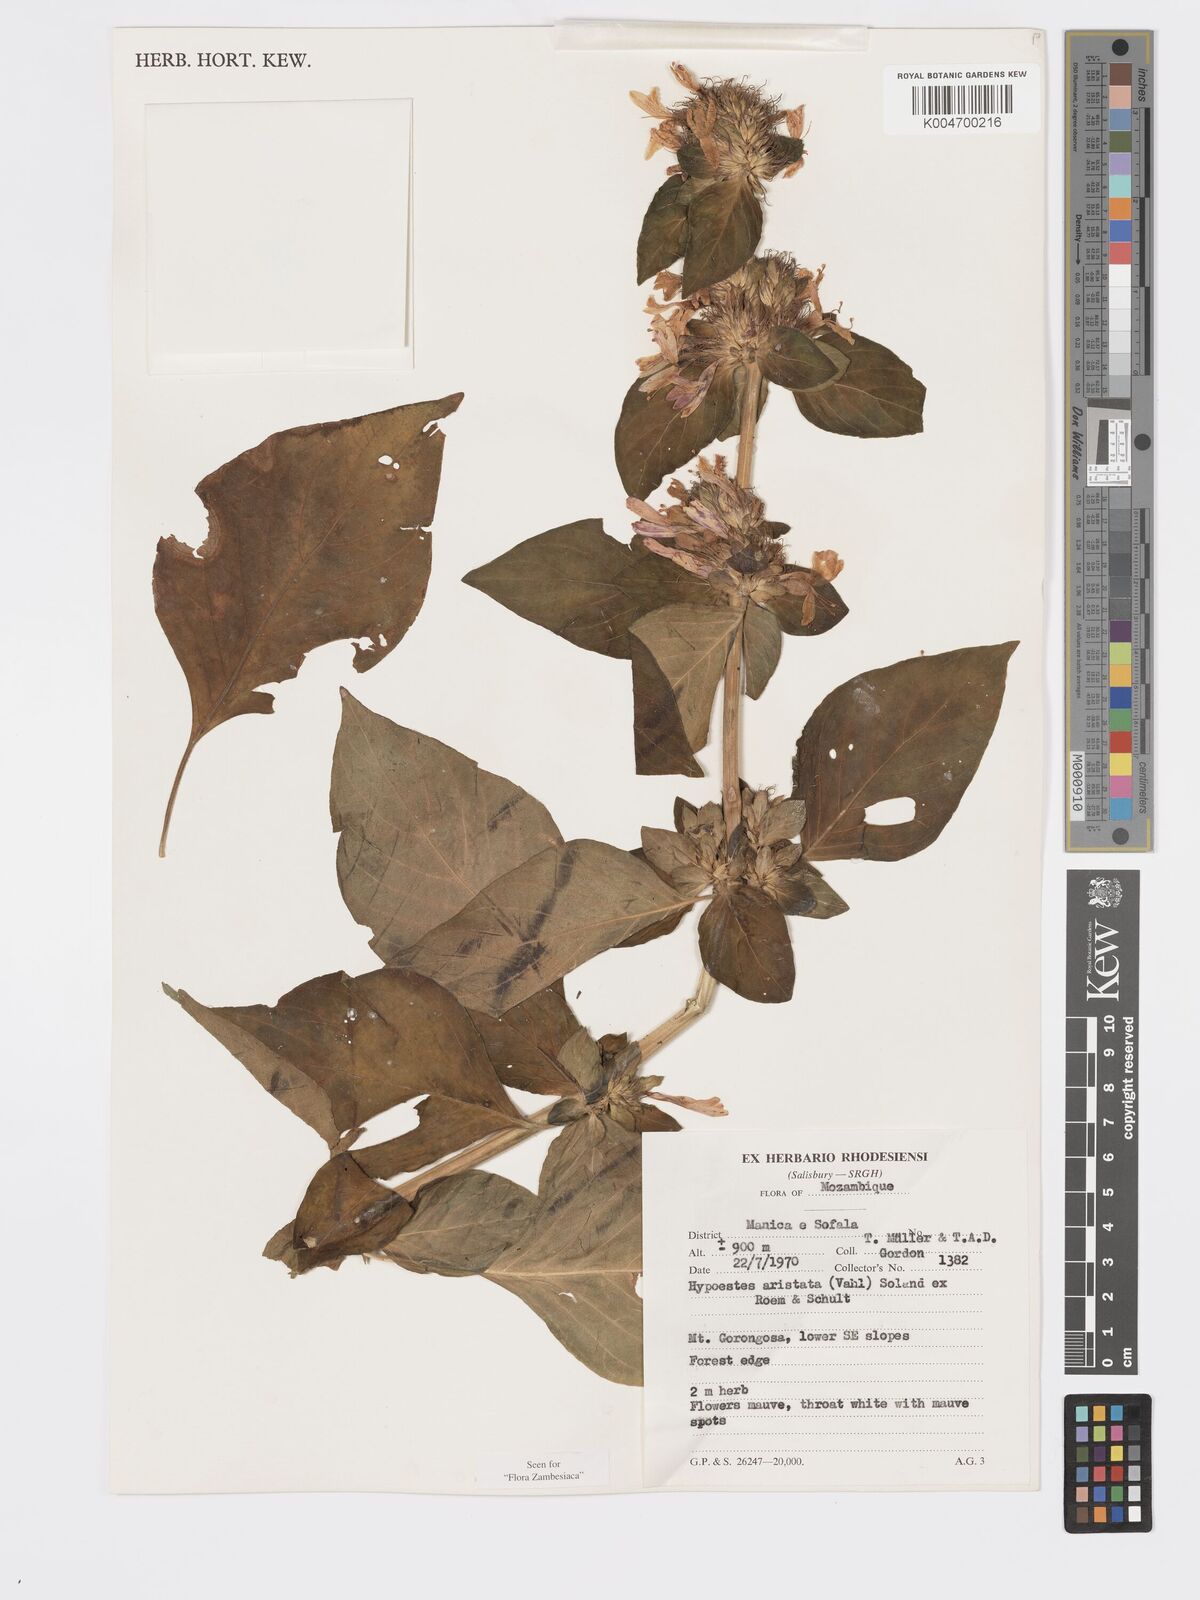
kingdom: Plantae
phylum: Tracheophyta
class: Magnoliopsida
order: Lamiales
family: Acanthaceae
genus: Hypoestes
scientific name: Hypoestes aristata
